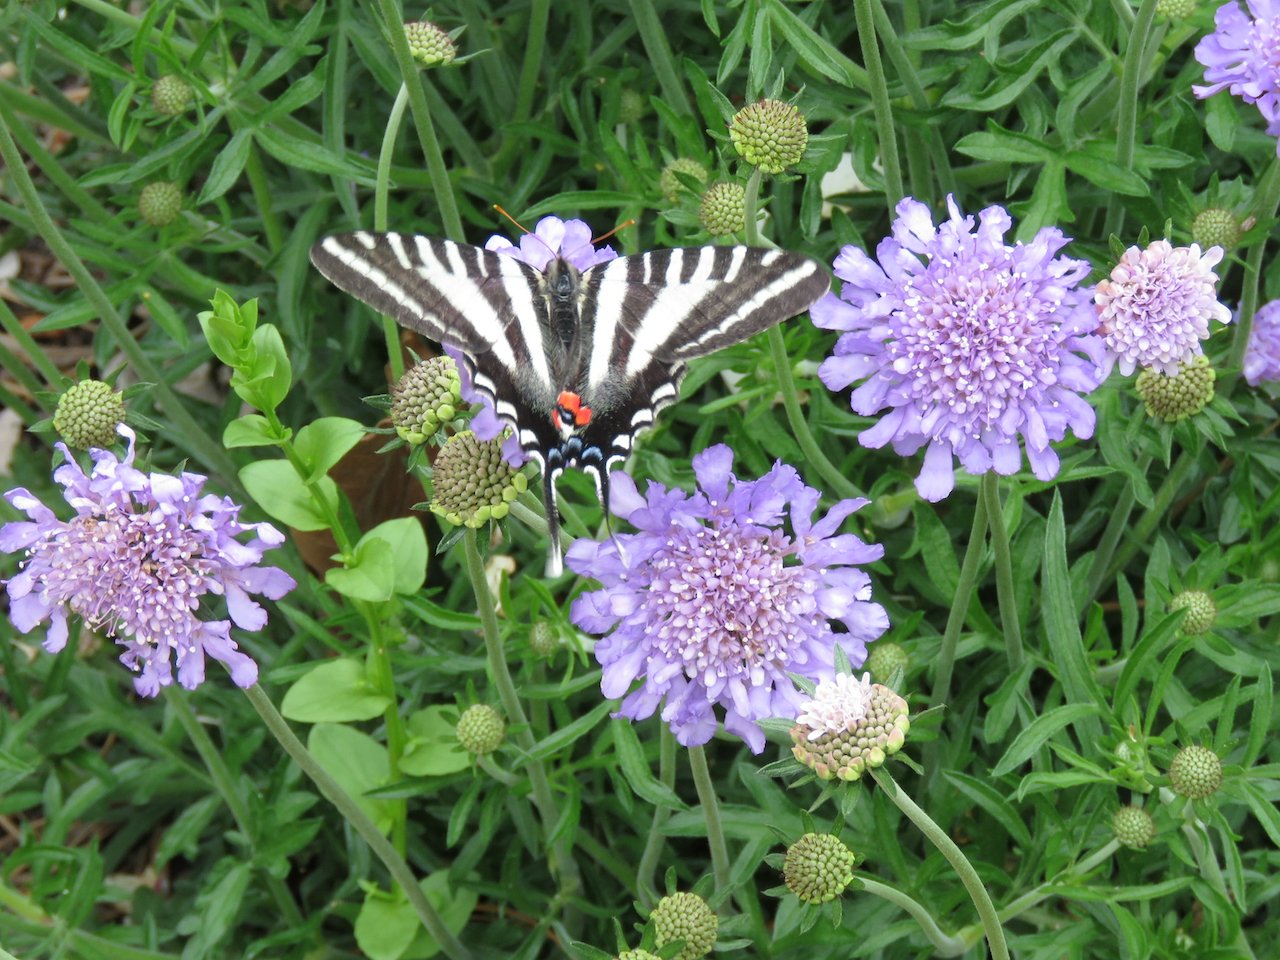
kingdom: Animalia
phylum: Arthropoda
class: Insecta
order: Lepidoptera
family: Papilionidae
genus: Protographium
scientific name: Protographium marcellus
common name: Zebra Swallowtail
